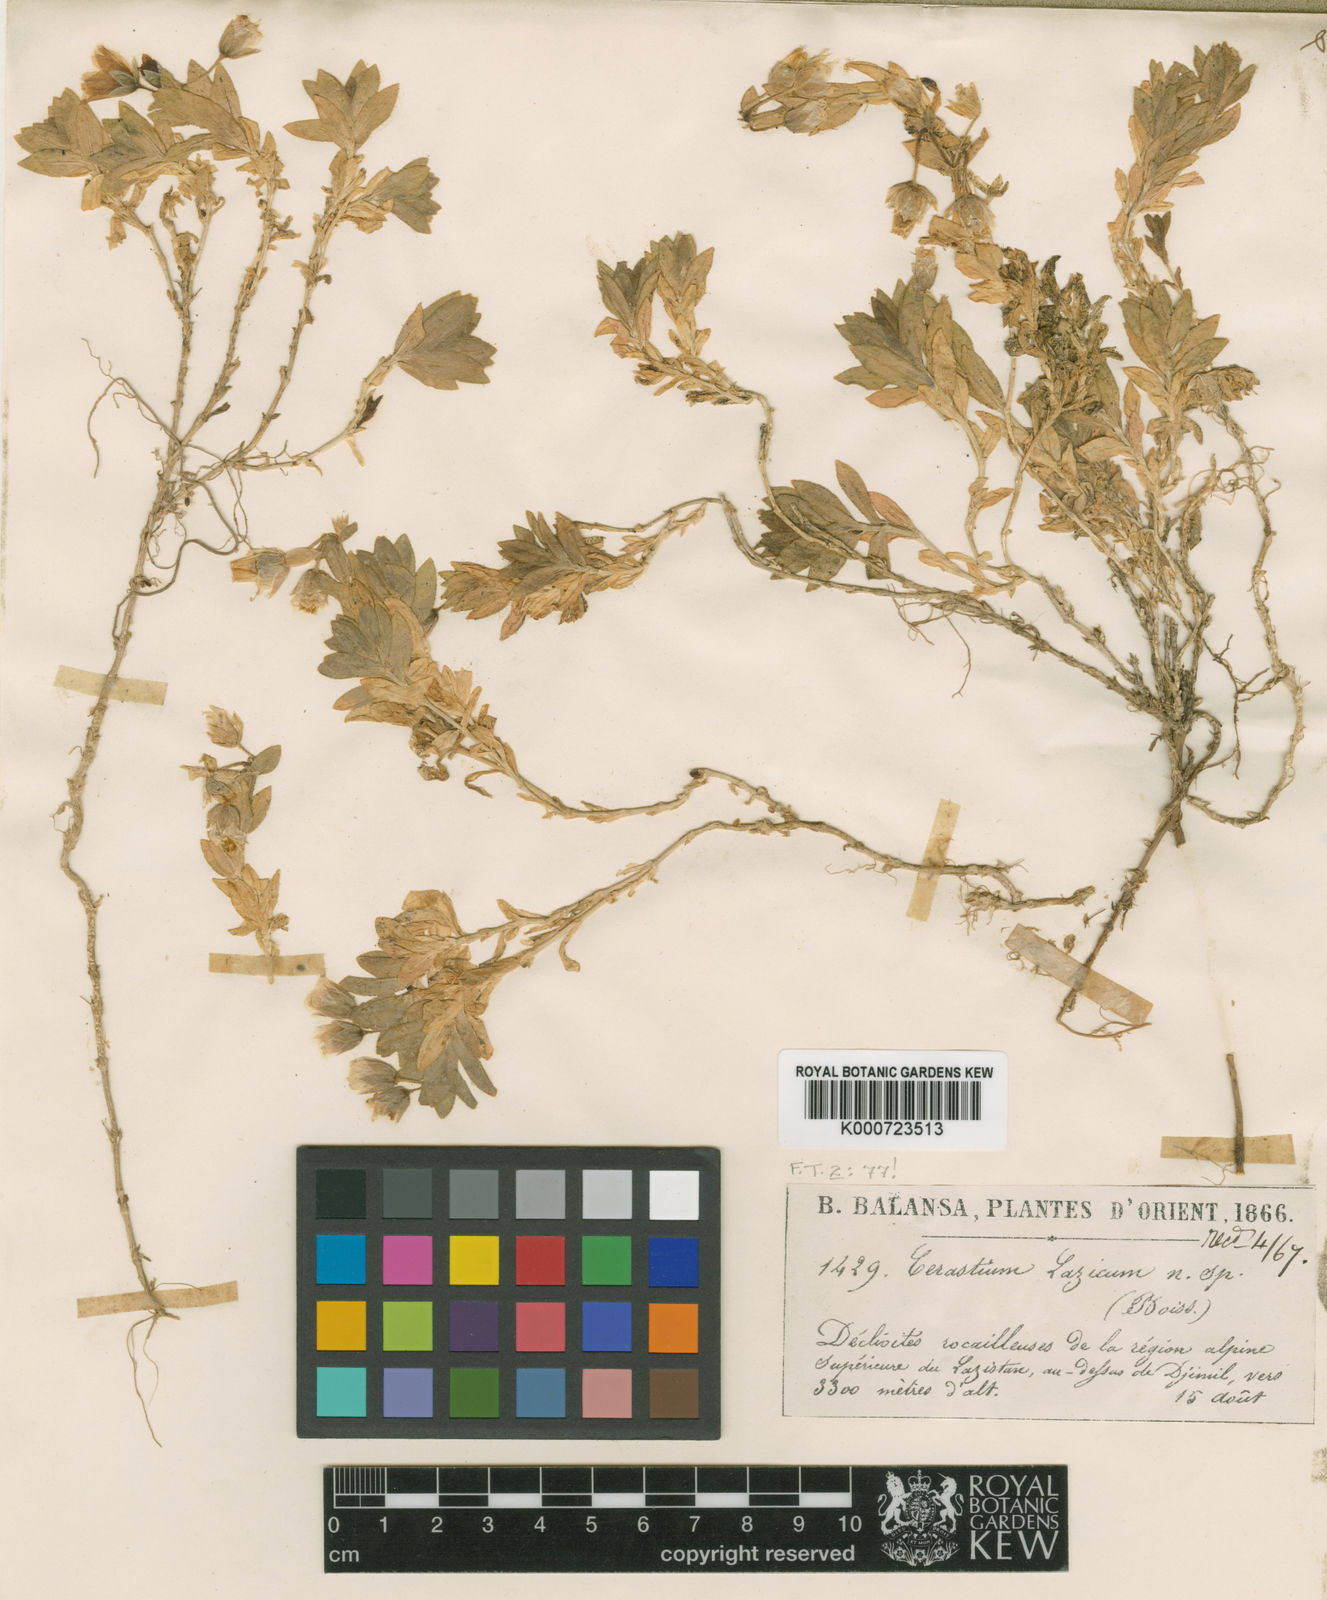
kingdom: Plantae
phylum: Tracheophyta
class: Magnoliopsida
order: Caryophyllales
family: Caryophyllaceae
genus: Cerastium
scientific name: Cerastium lazicum
